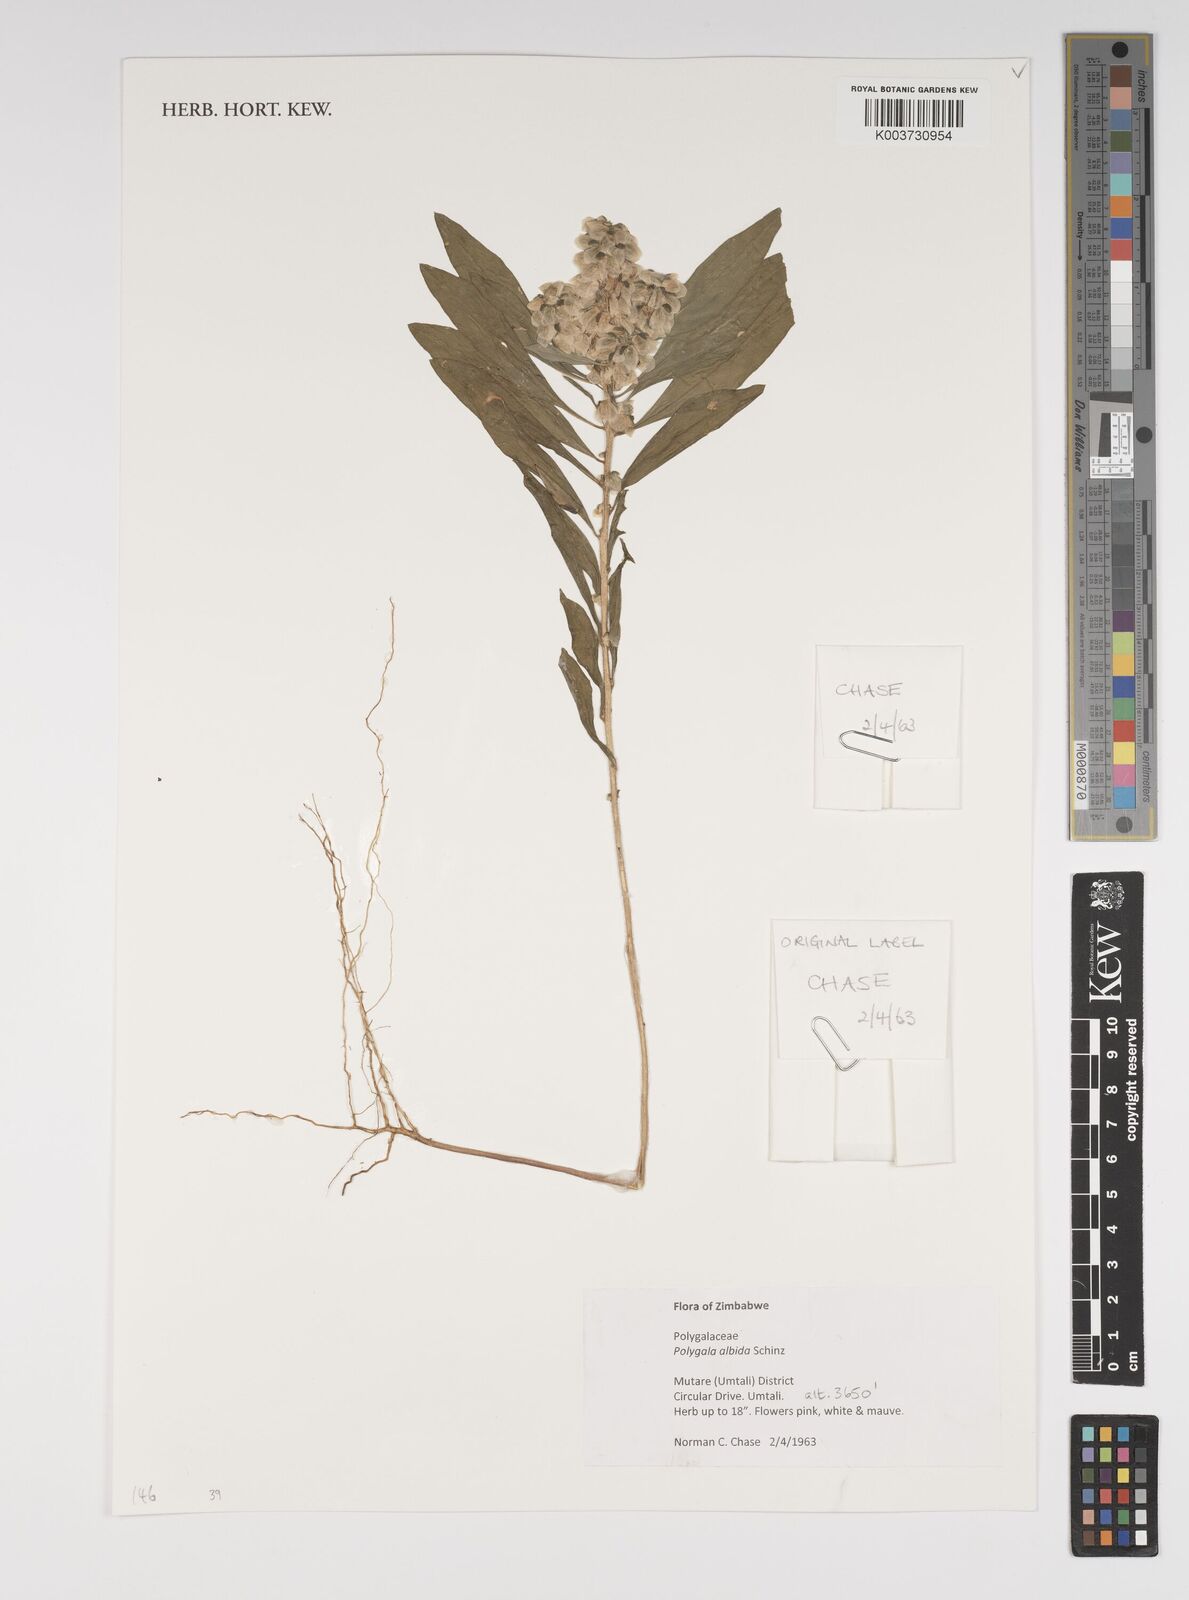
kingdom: Plantae
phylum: Tracheophyta
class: Magnoliopsida
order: Fabales
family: Polygalaceae
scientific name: Polygalaceae
